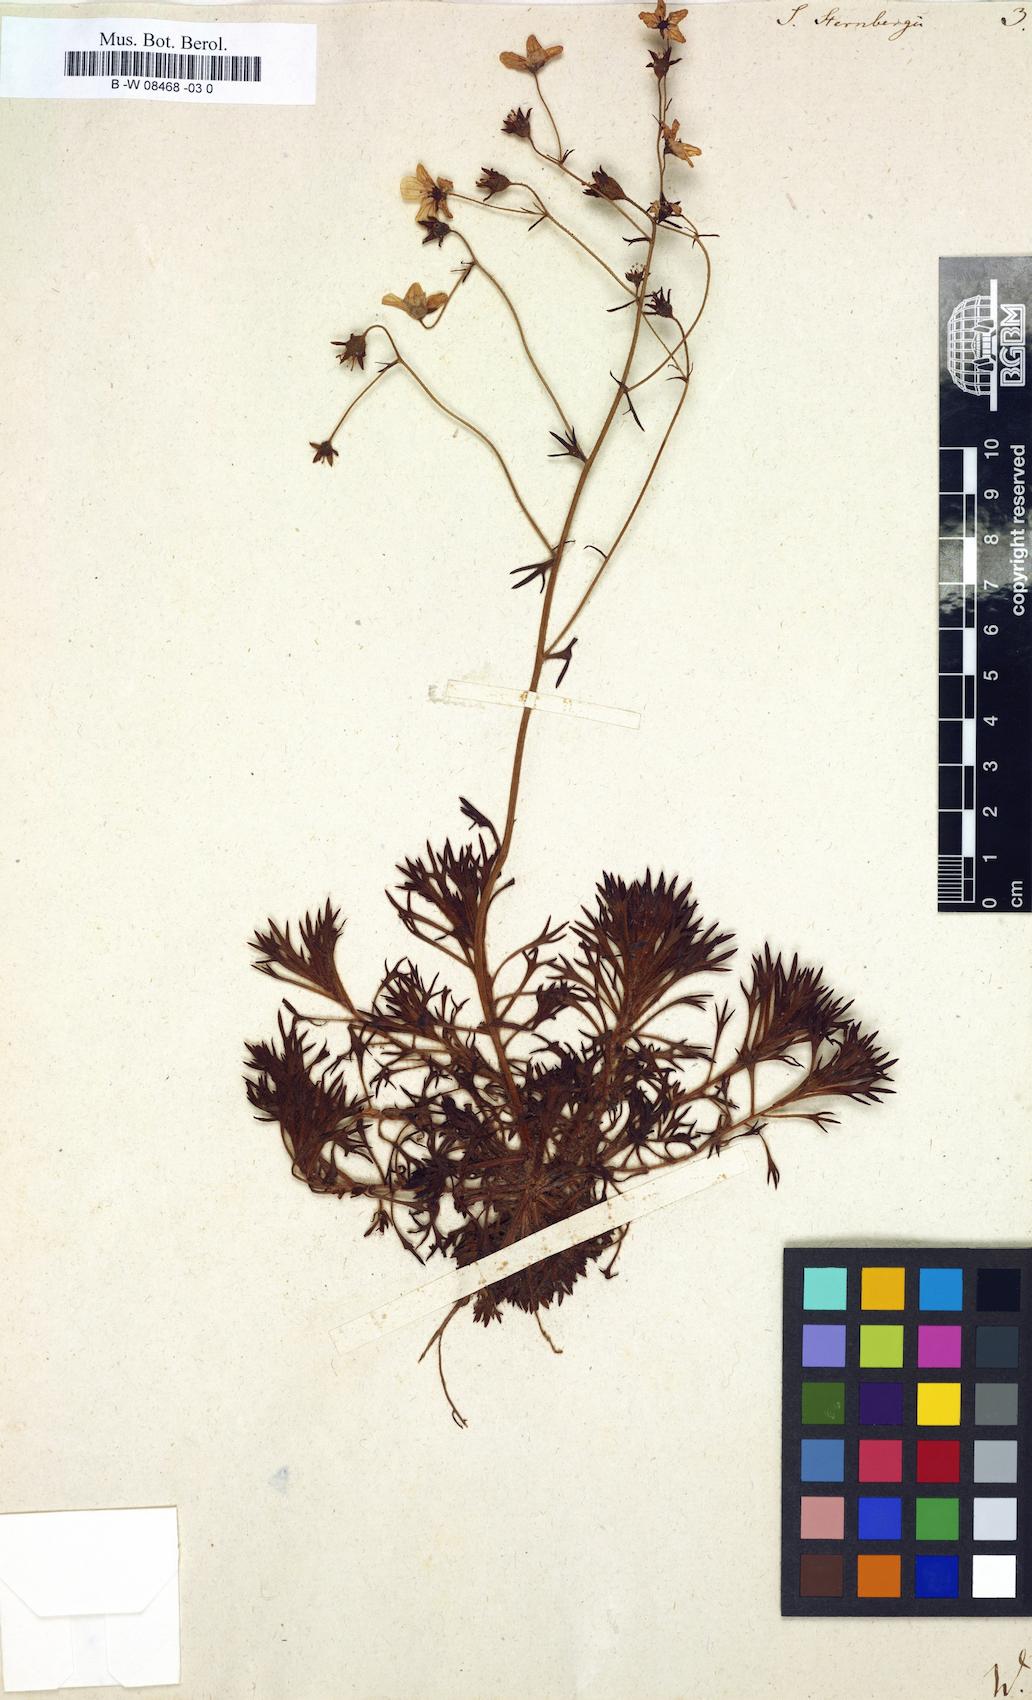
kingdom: Plantae
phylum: Tracheophyta
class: Magnoliopsida
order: Saxifragales
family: Saxifragaceae
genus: Saxifraga
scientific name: Saxifraga rosacea
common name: Irish saxifrage
